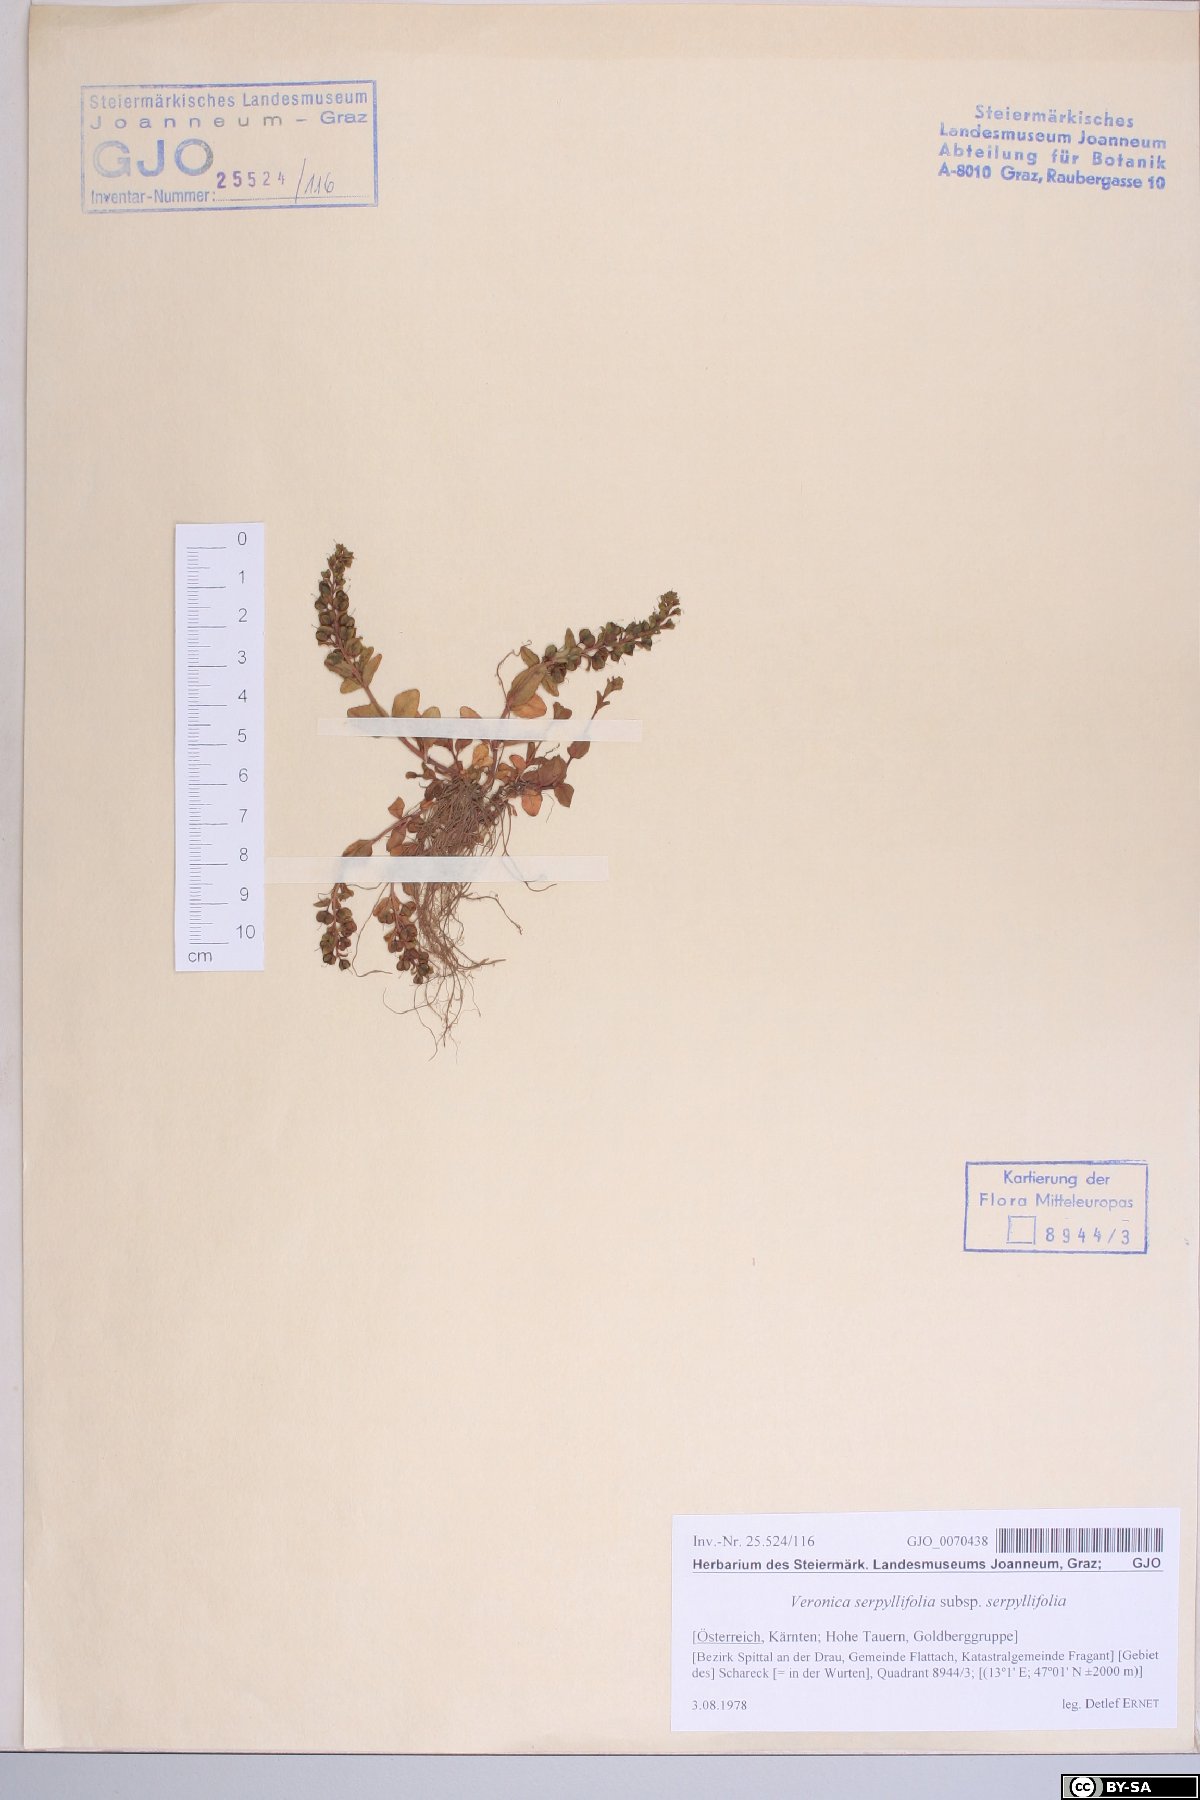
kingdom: Plantae
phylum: Tracheophyta
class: Magnoliopsida
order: Lamiales
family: Plantaginaceae
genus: Veronica
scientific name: Veronica serpyllifolia
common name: Thyme-leaved speedwell
